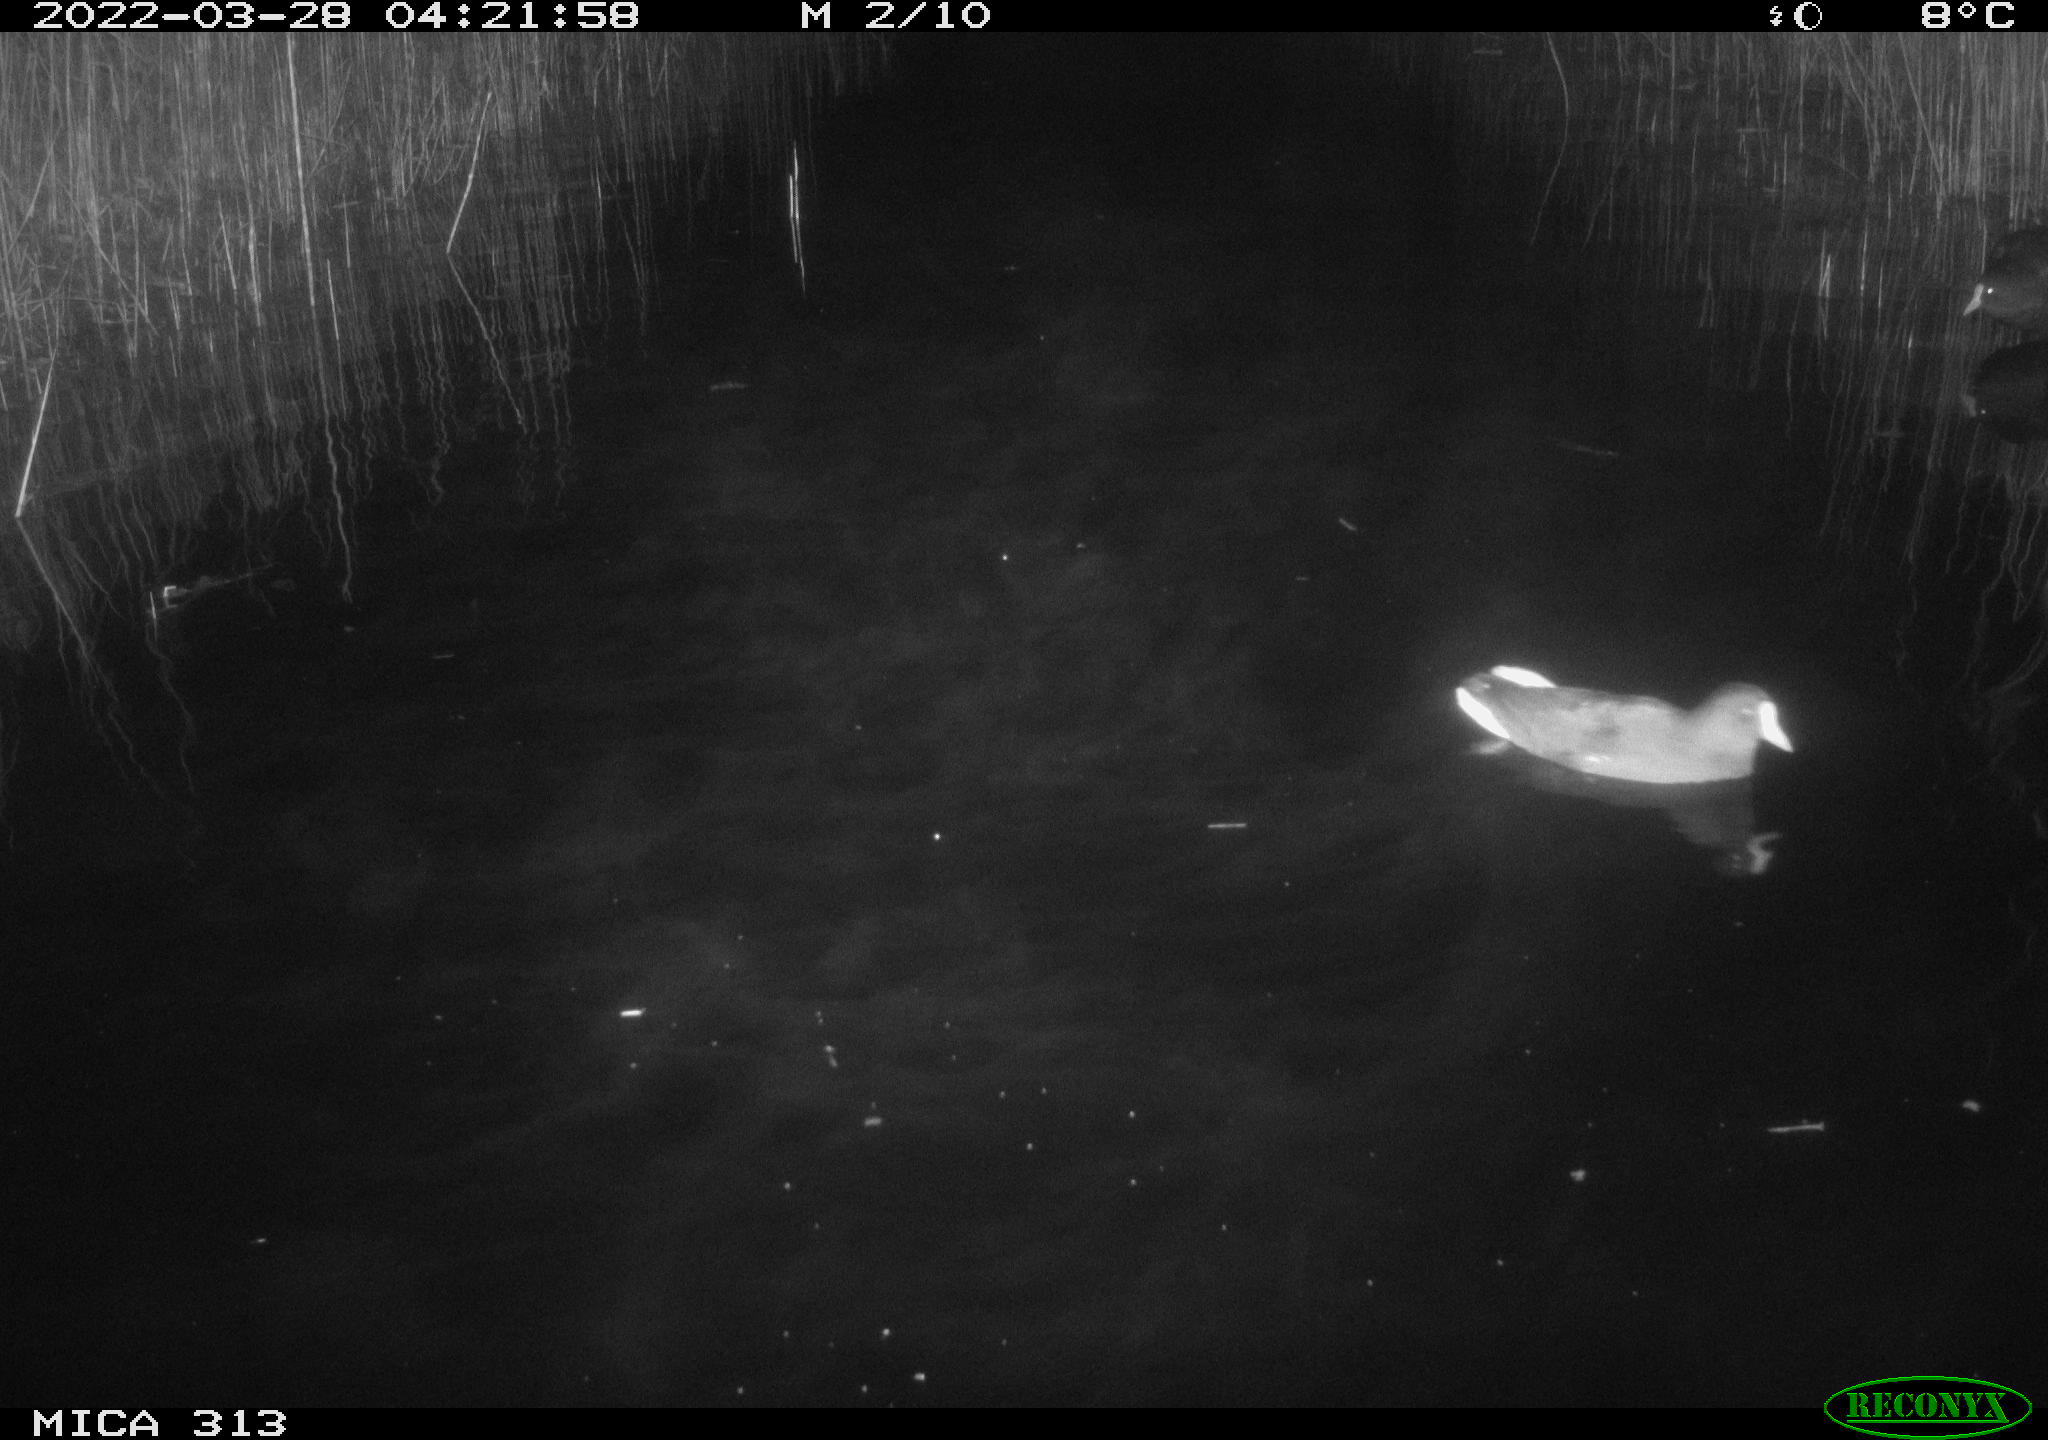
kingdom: Animalia
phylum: Chordata
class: Aves
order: Gruiformes
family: Rallidae
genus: Gallinula
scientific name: Gallinula chloropus
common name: Common moorhen
